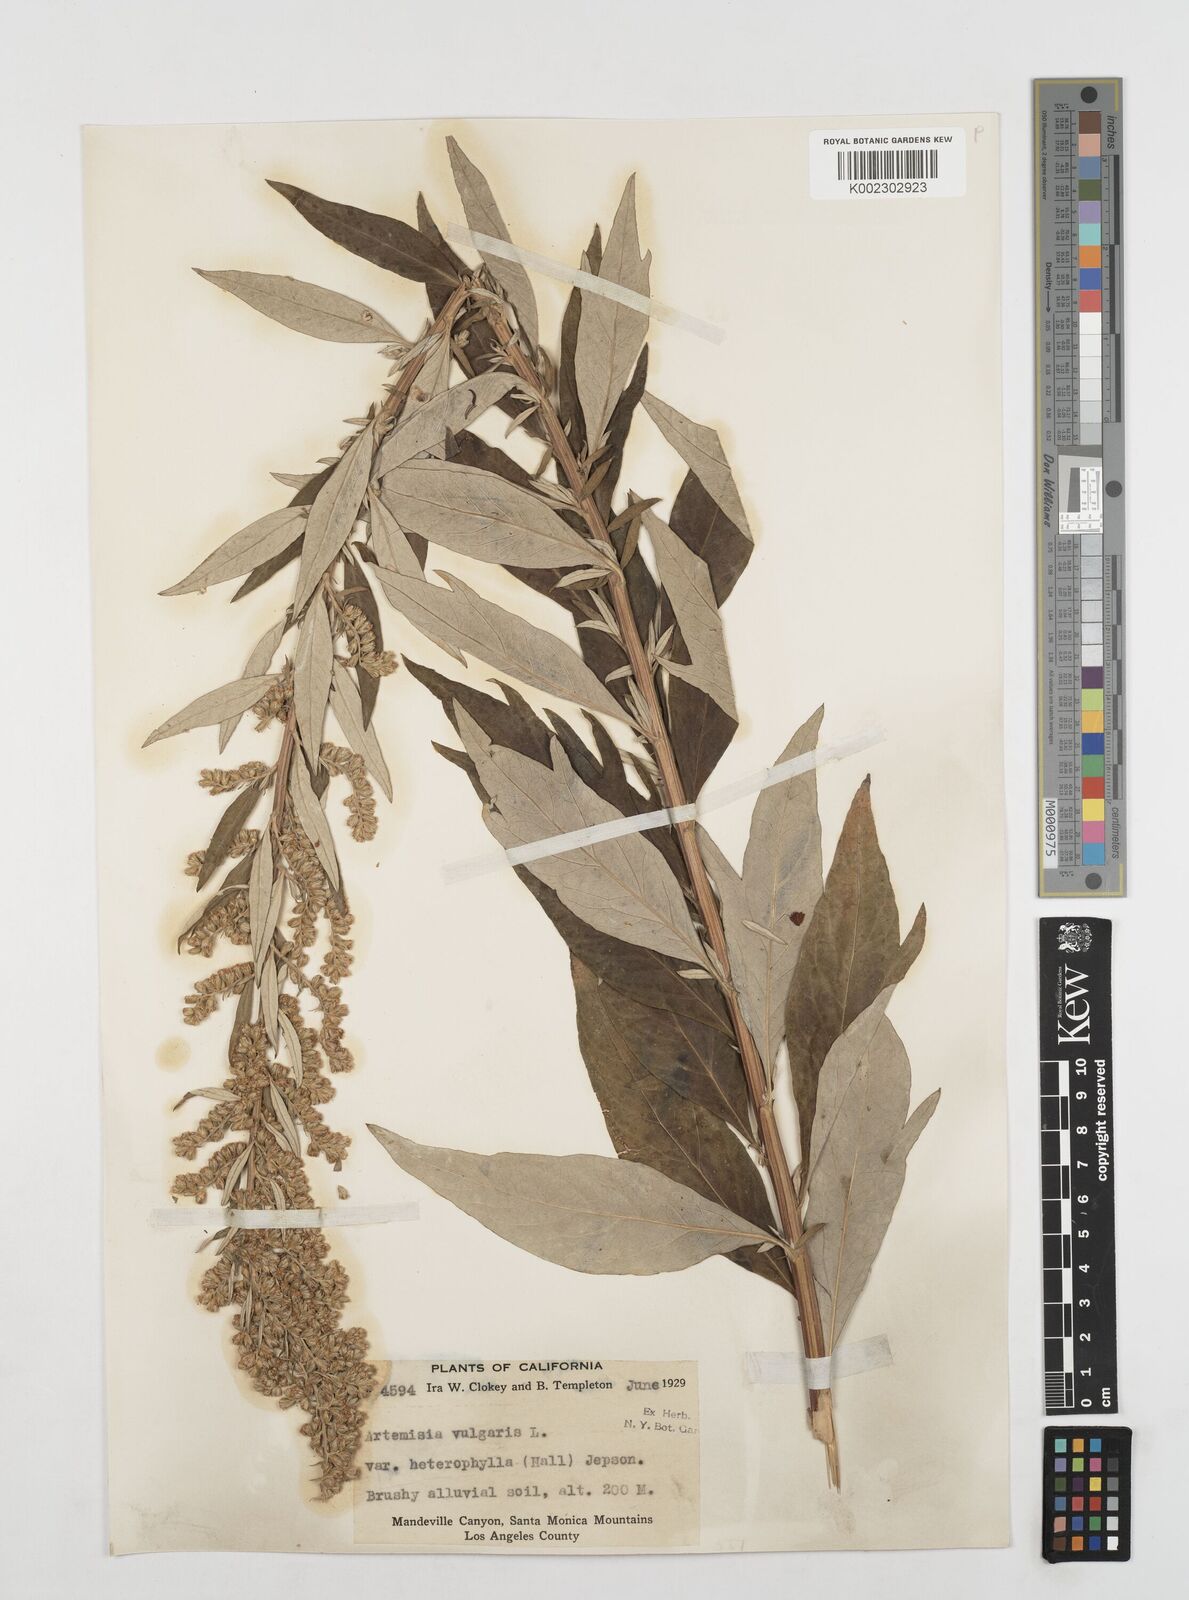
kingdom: Plantae
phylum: Tracheophyta
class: Magnoliopsida
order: Asterales
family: Asteraceae
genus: Artemisia
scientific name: Artemisia douglasiana
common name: Northwest mugwort
